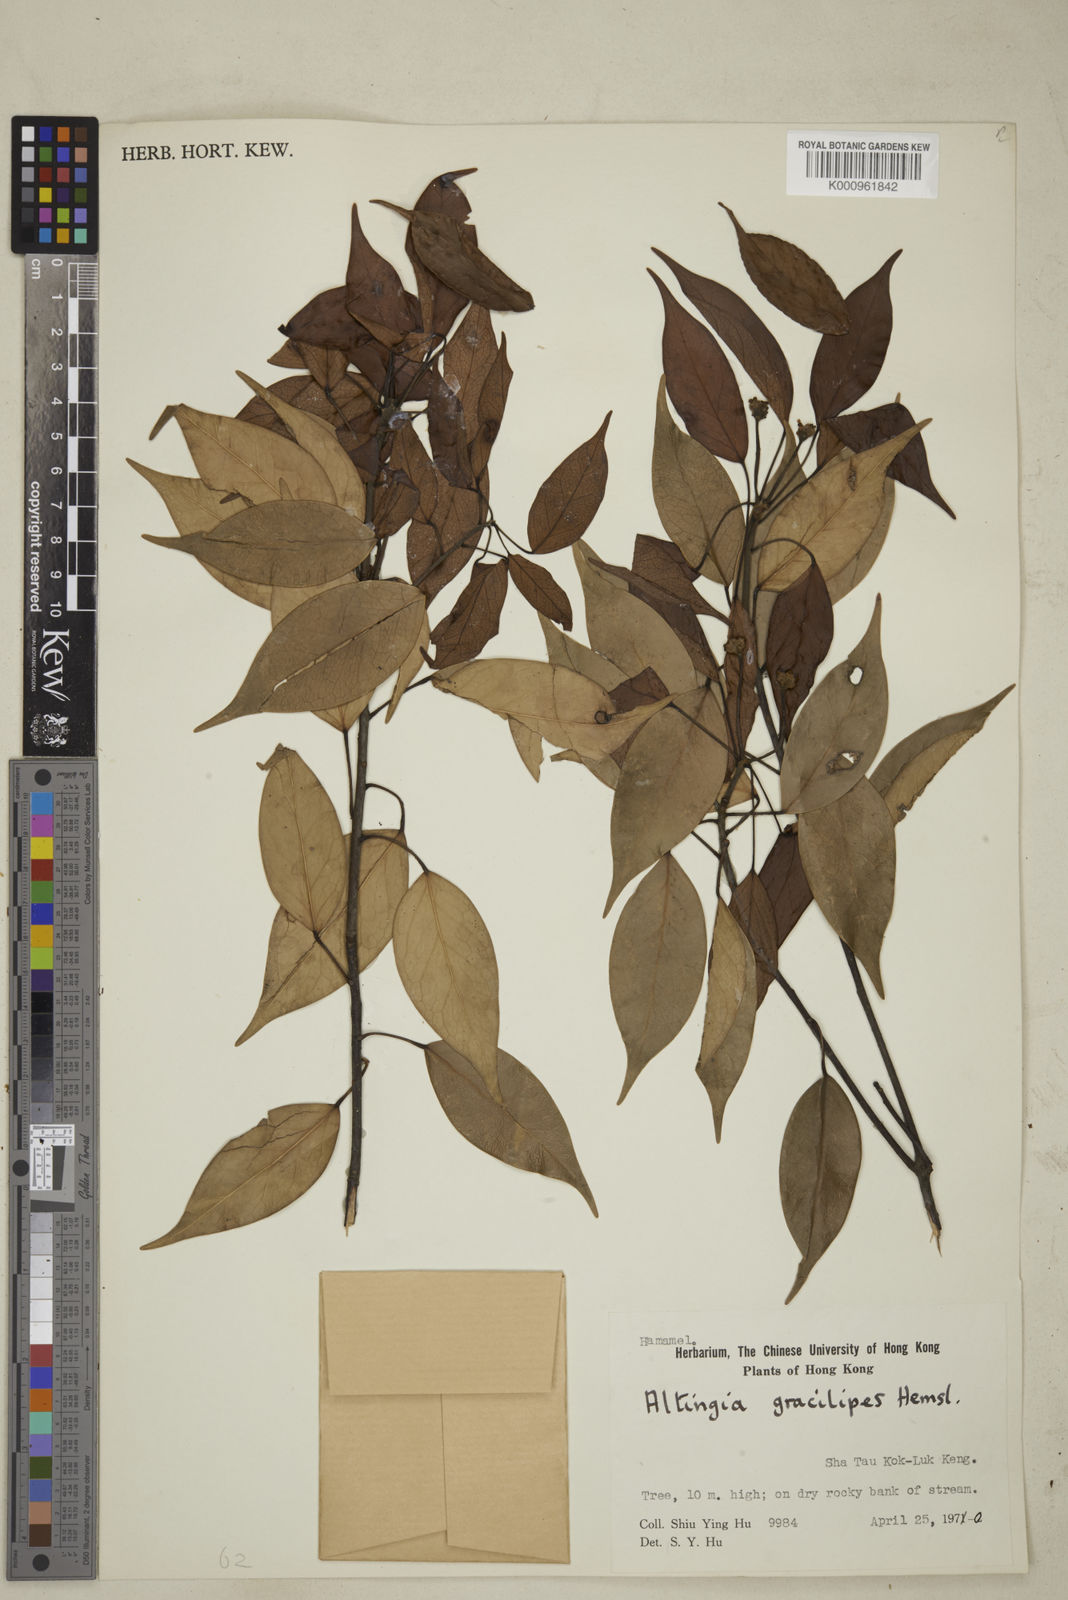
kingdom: Plantae
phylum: Tracheophyta
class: Magnoliopsida
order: Saxifragales
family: Altingiaceae
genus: Liquidambar
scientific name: Liquidambar gracilipes
